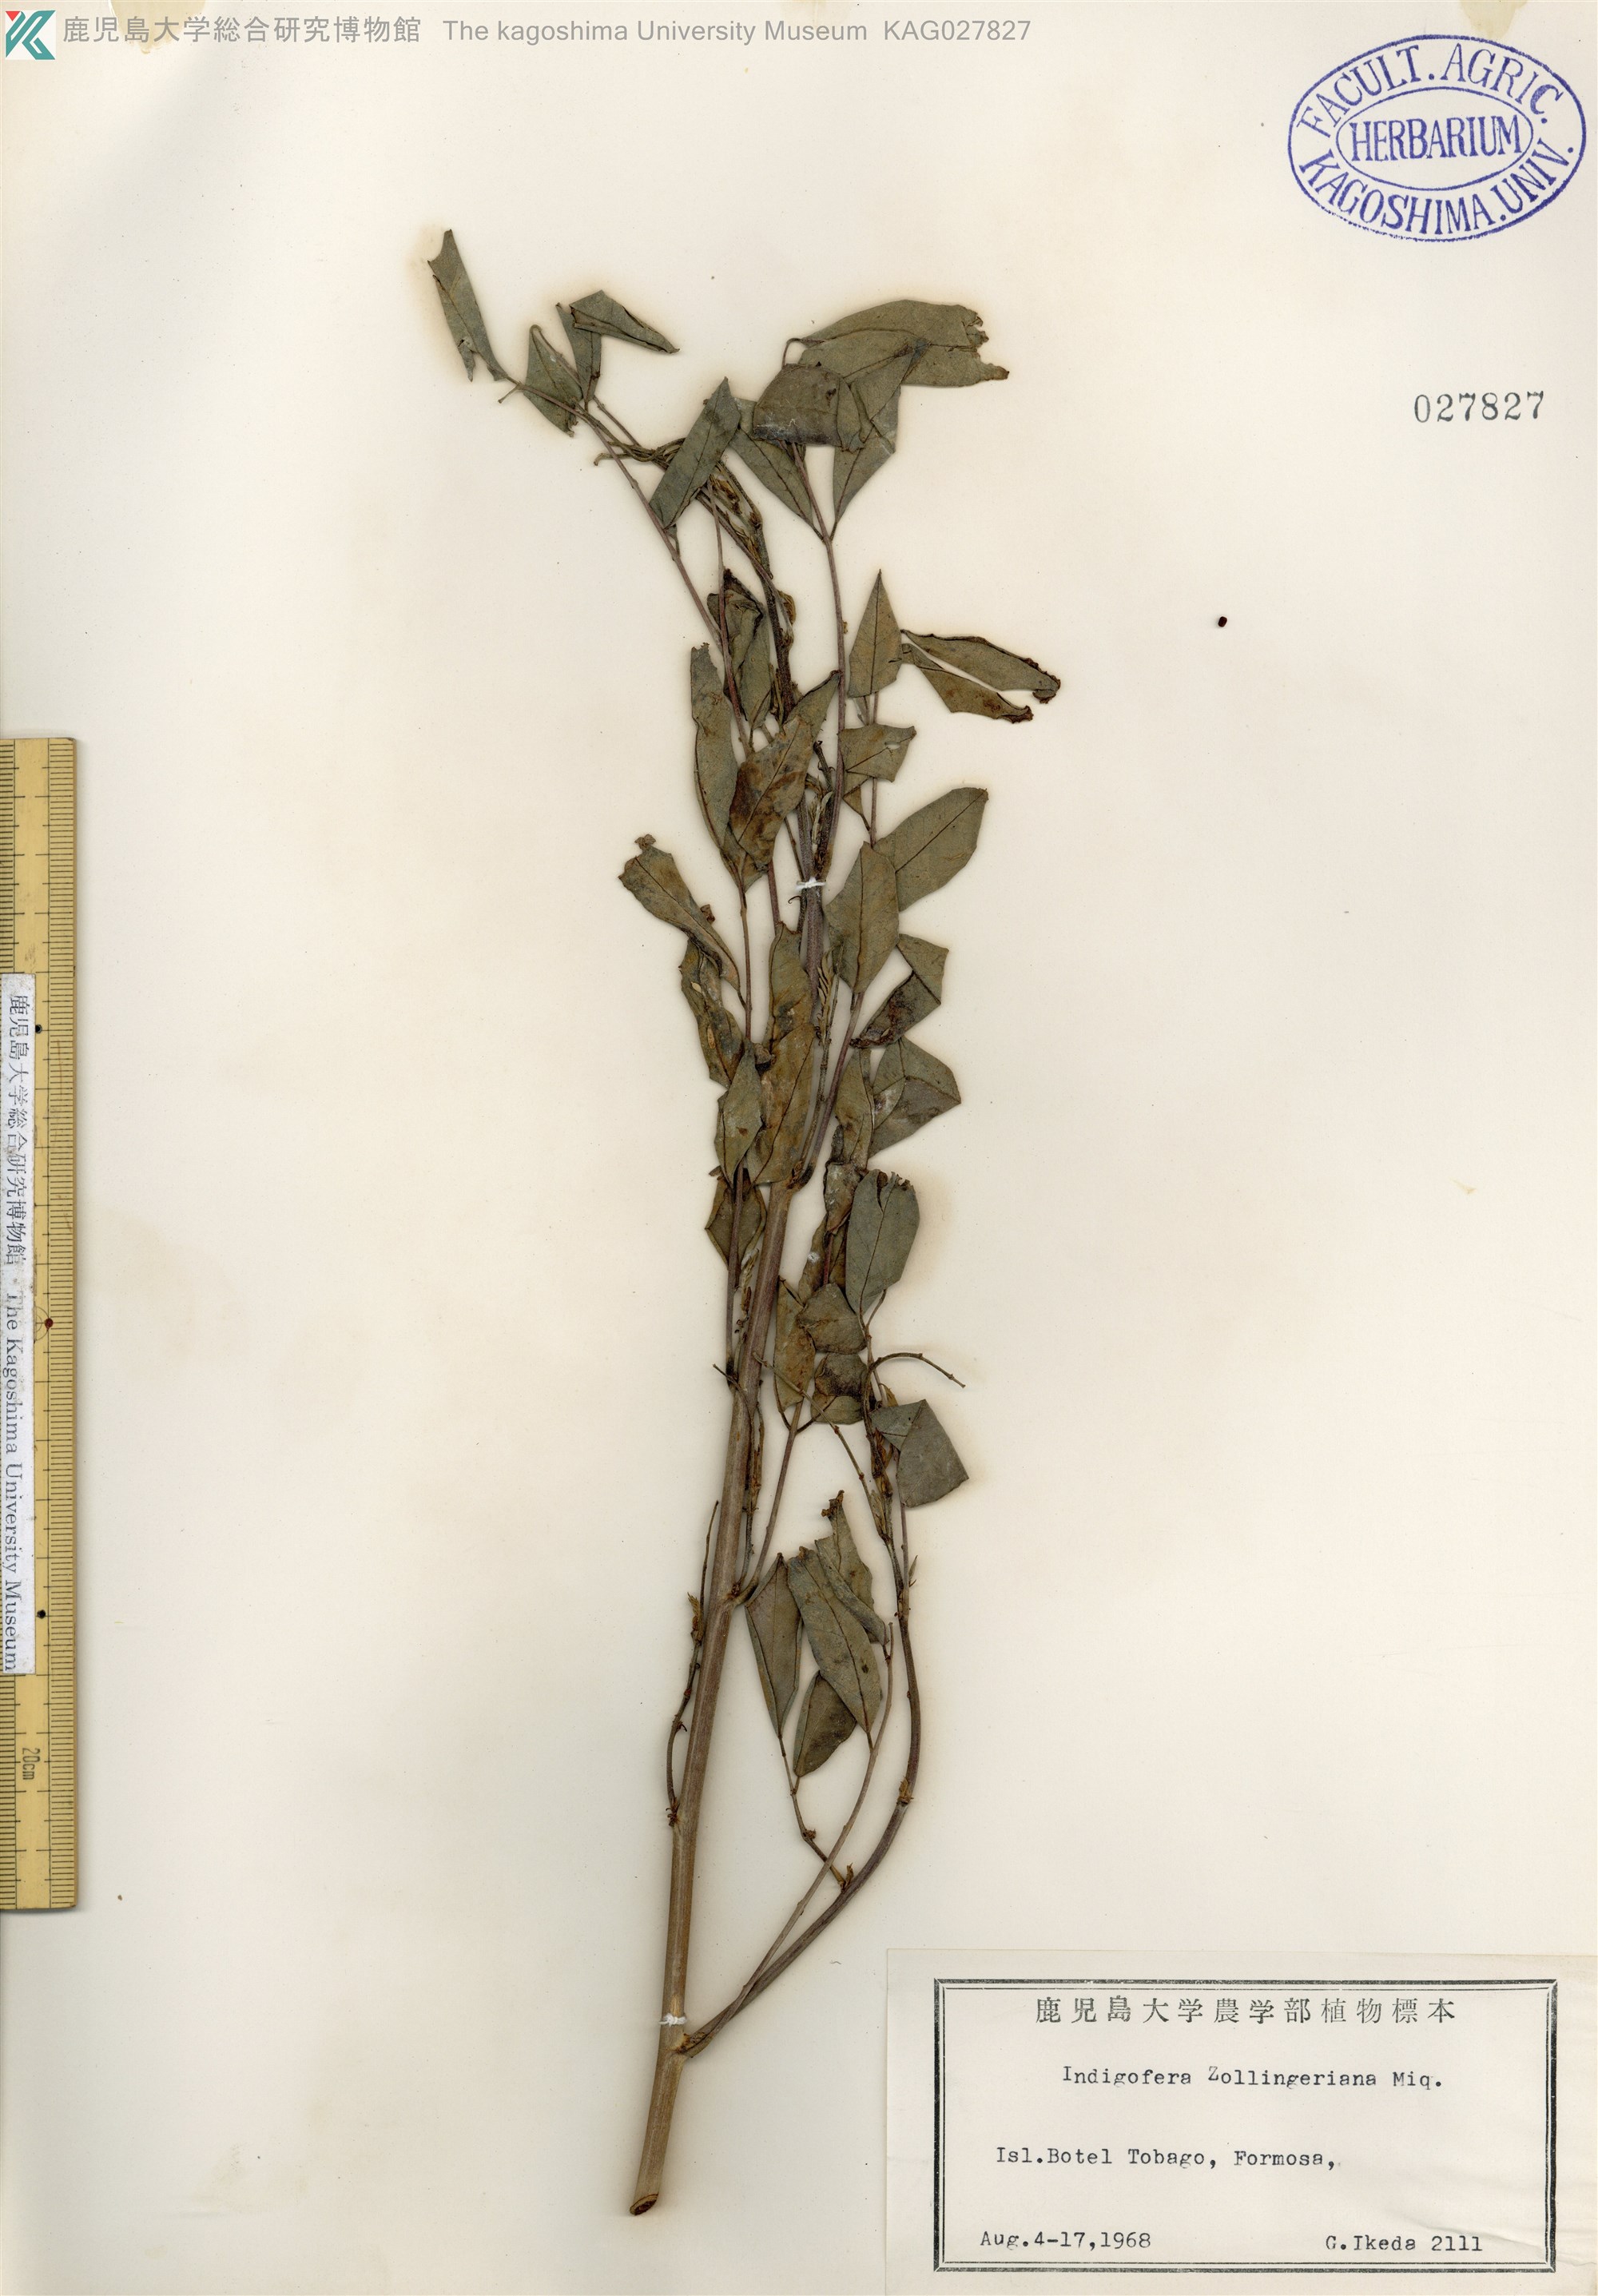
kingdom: Plantae
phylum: Tracheophyta
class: Magnoliopsida
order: Fabales
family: Fabaceae
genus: Indigofera
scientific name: Indigofera zollingeriana
